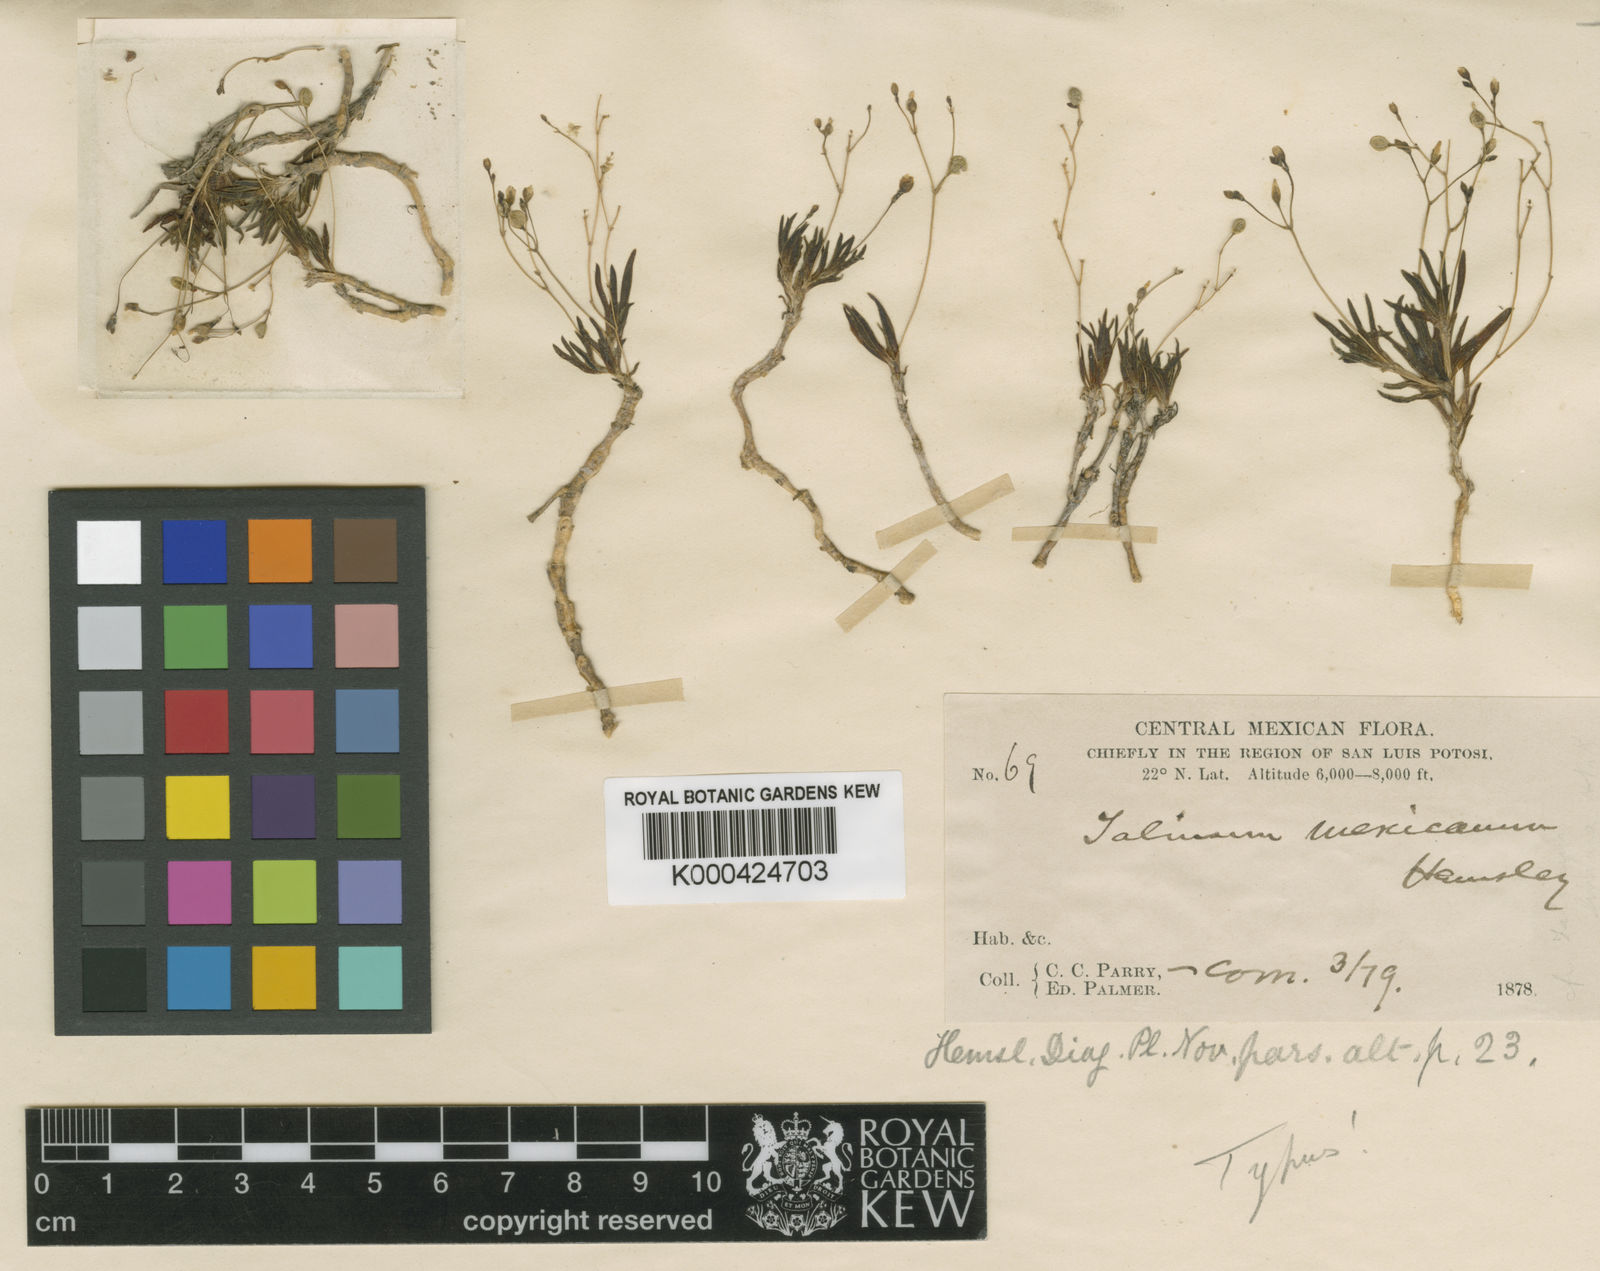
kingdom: Plantae
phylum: Tracheophyta
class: Magnoliopsida
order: Caryophyllales
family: Montiaceae
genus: Phemeranthus
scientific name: Phemeranthus mexicanus
